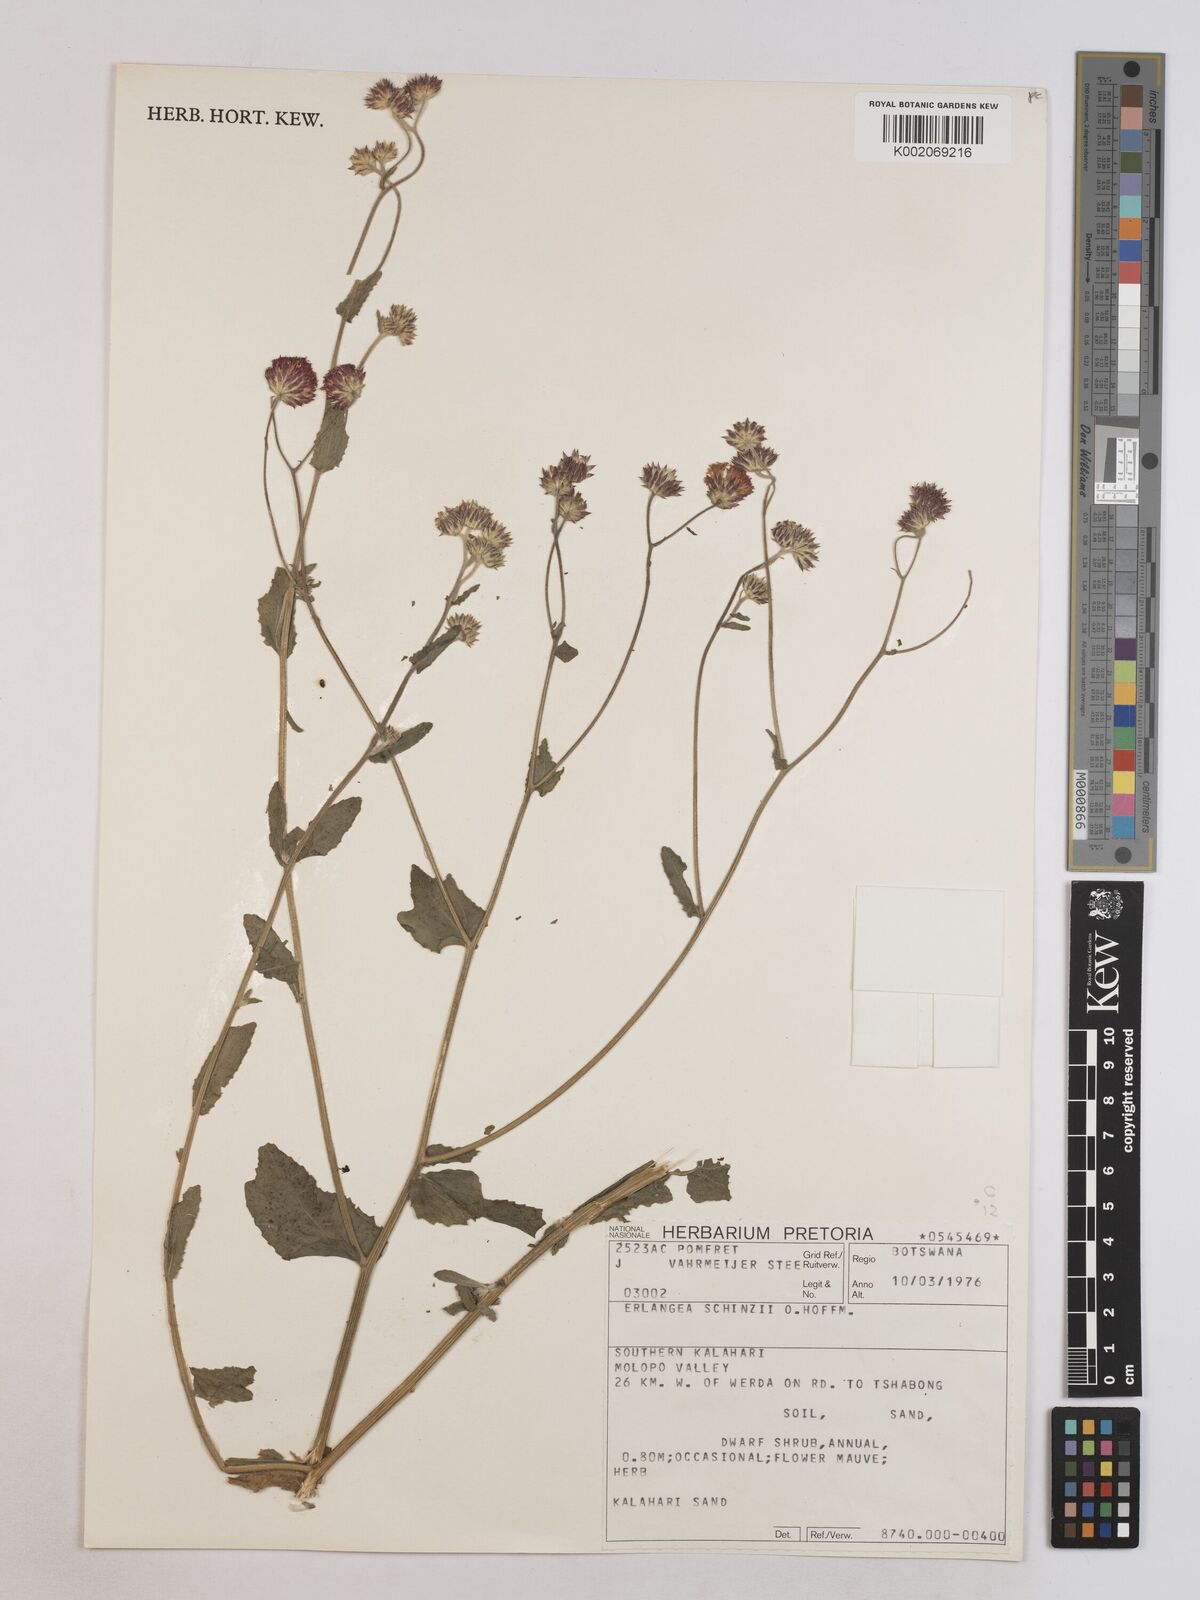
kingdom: Plantae
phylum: Tracheophyta
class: Magnoliopsida
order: Asterales
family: Asteraceae
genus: Erlangea
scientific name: Erlangea misera
